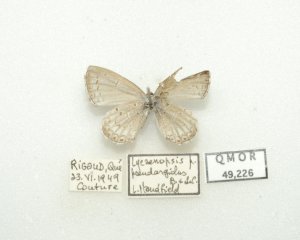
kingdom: Animalia
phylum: Arthropoda
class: Insecta
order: Lepidoptera
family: Lycaenidae
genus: Cyaniris
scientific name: Cyaniris neglecta
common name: Summer Azure
